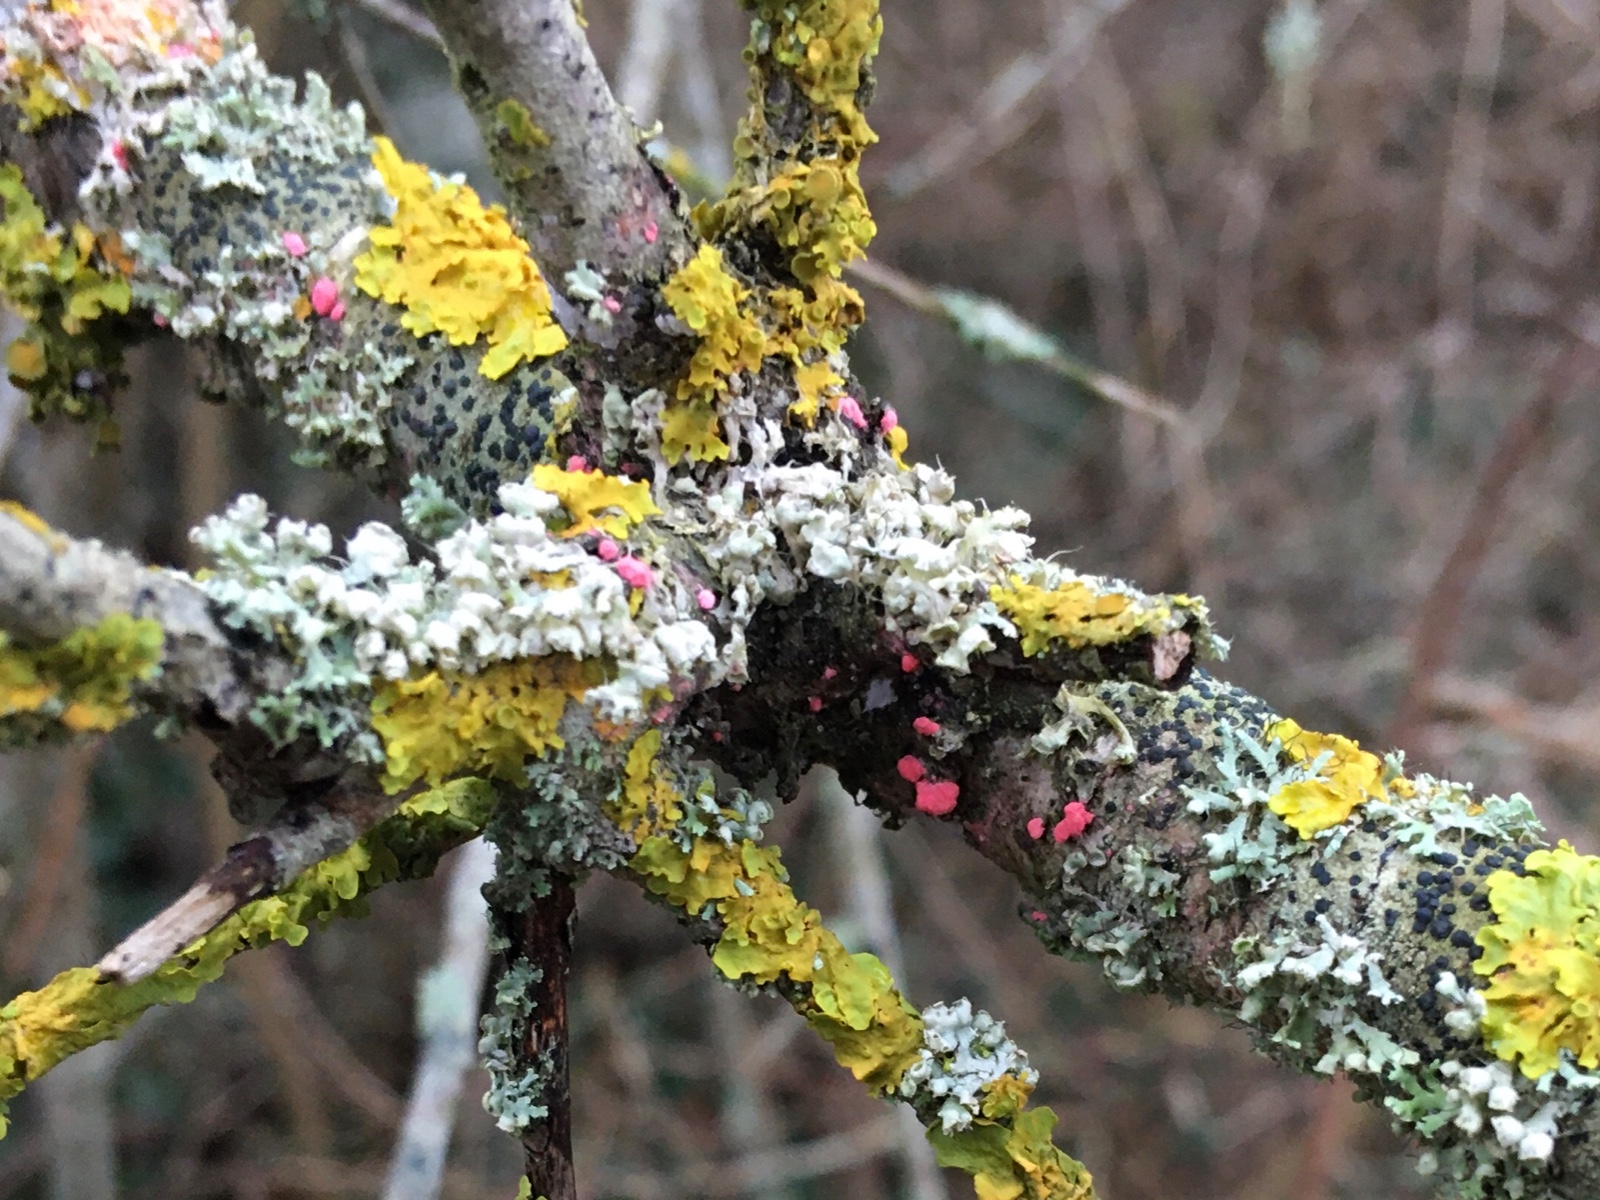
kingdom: Fungi
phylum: Ascomycota
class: Sordariomycetes
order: Hypocreales
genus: Illosporiopsis
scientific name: Illosporiopsis christiansenii
